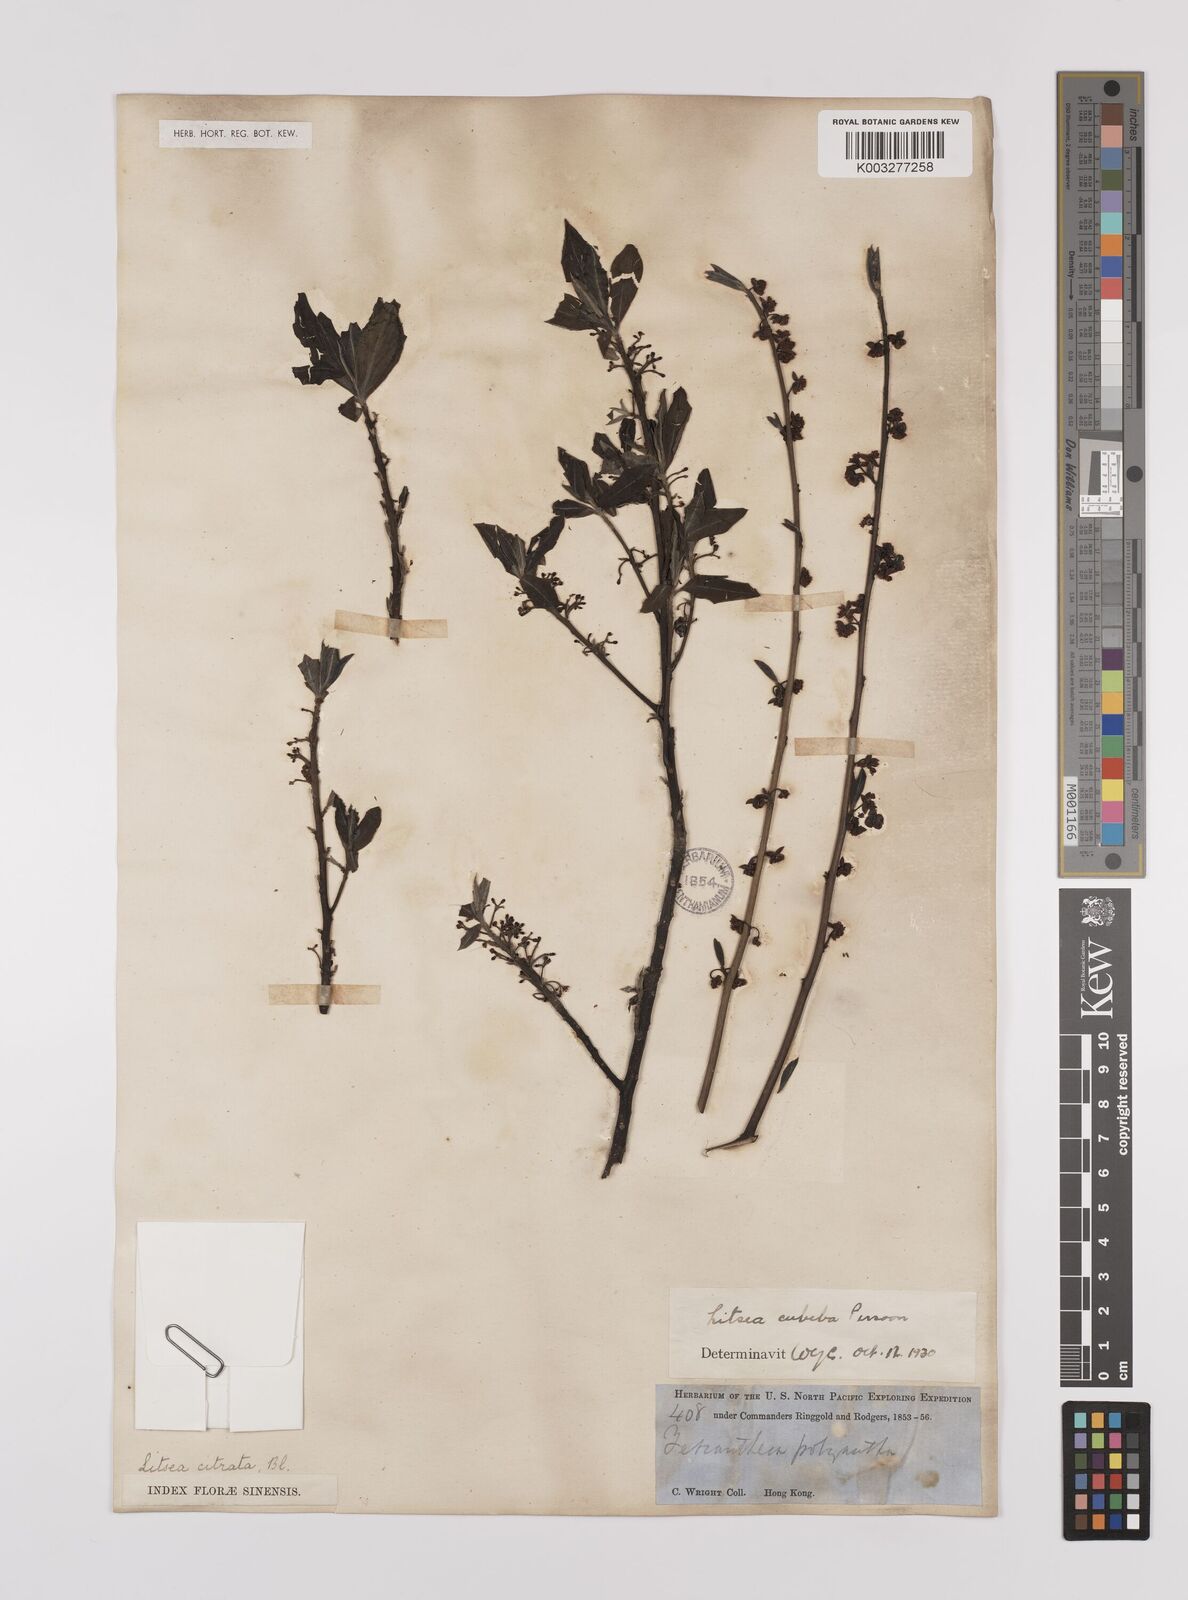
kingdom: Plantae
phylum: Tracheophyta
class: Magnoliopsida
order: Laurales
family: Lauraceae
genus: Litsea
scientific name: Litsea cubeba
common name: Mountain-pepper
